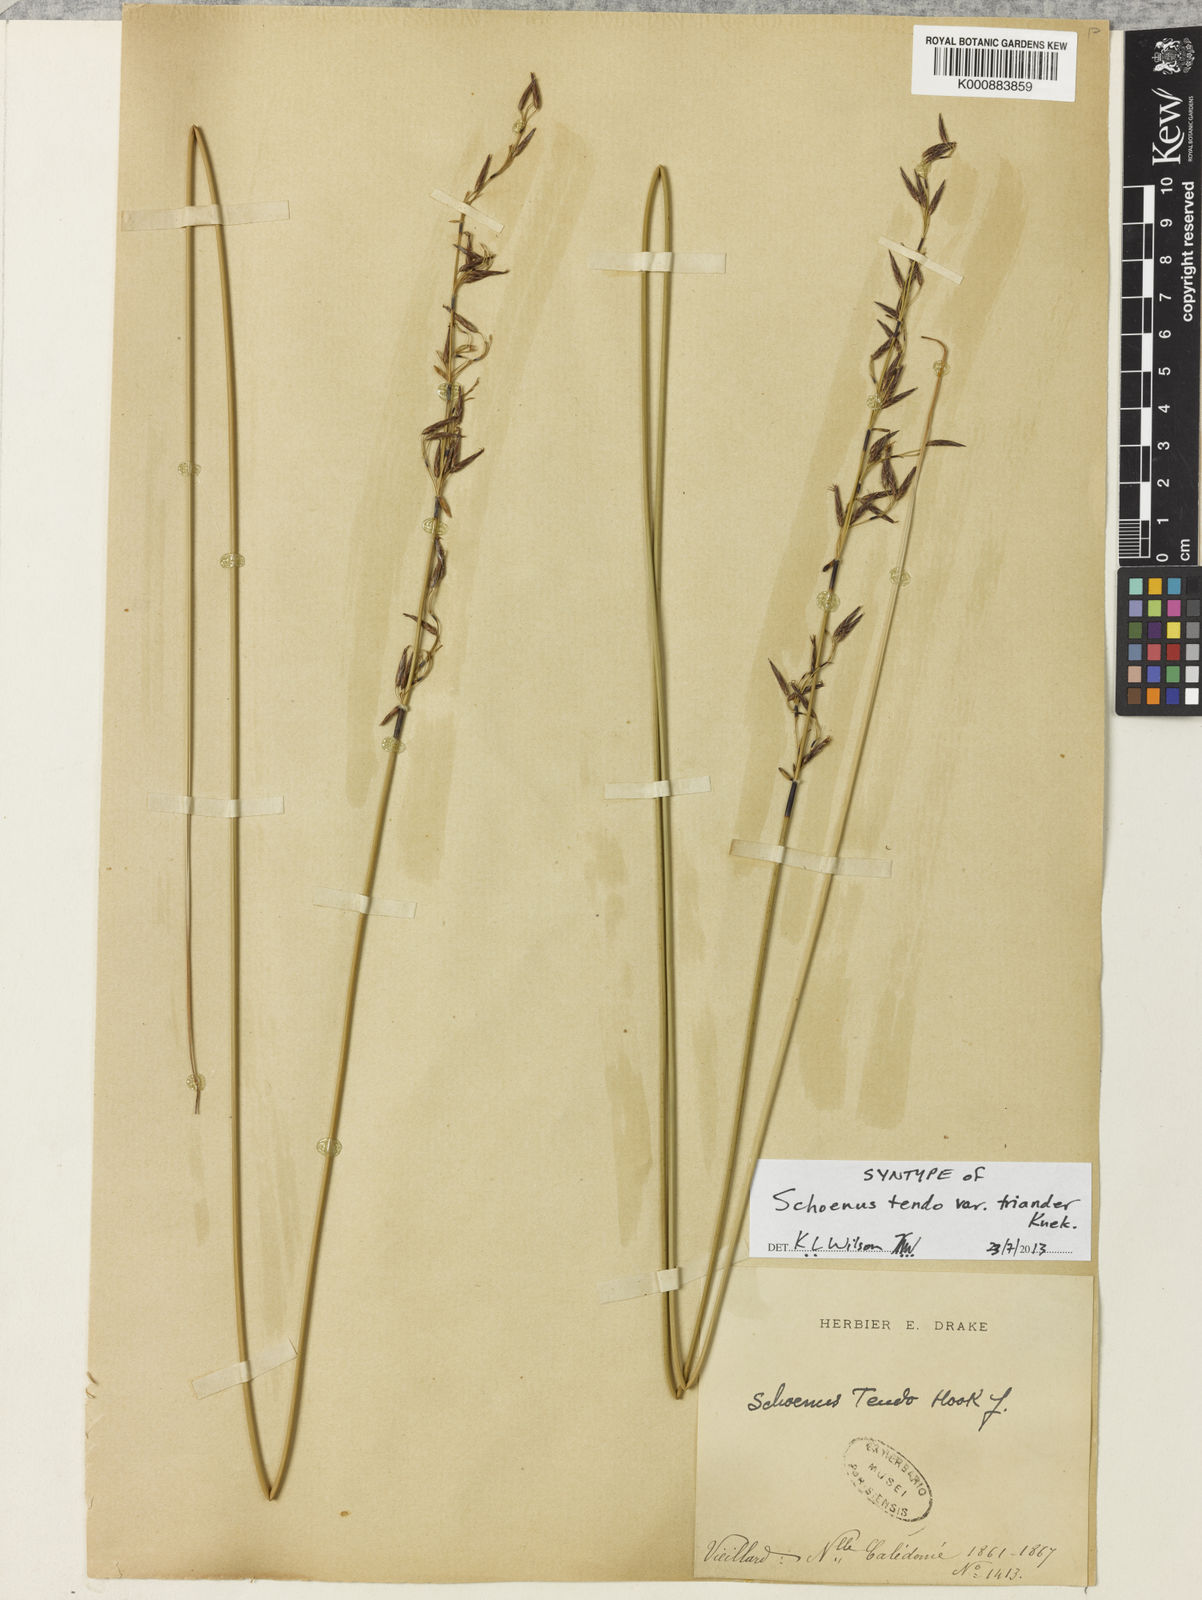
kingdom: Plantae
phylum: Tracheophyta
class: Liliopsida
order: Poales
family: Cyperaceae
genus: Schoenus
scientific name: Schoenus tendo
